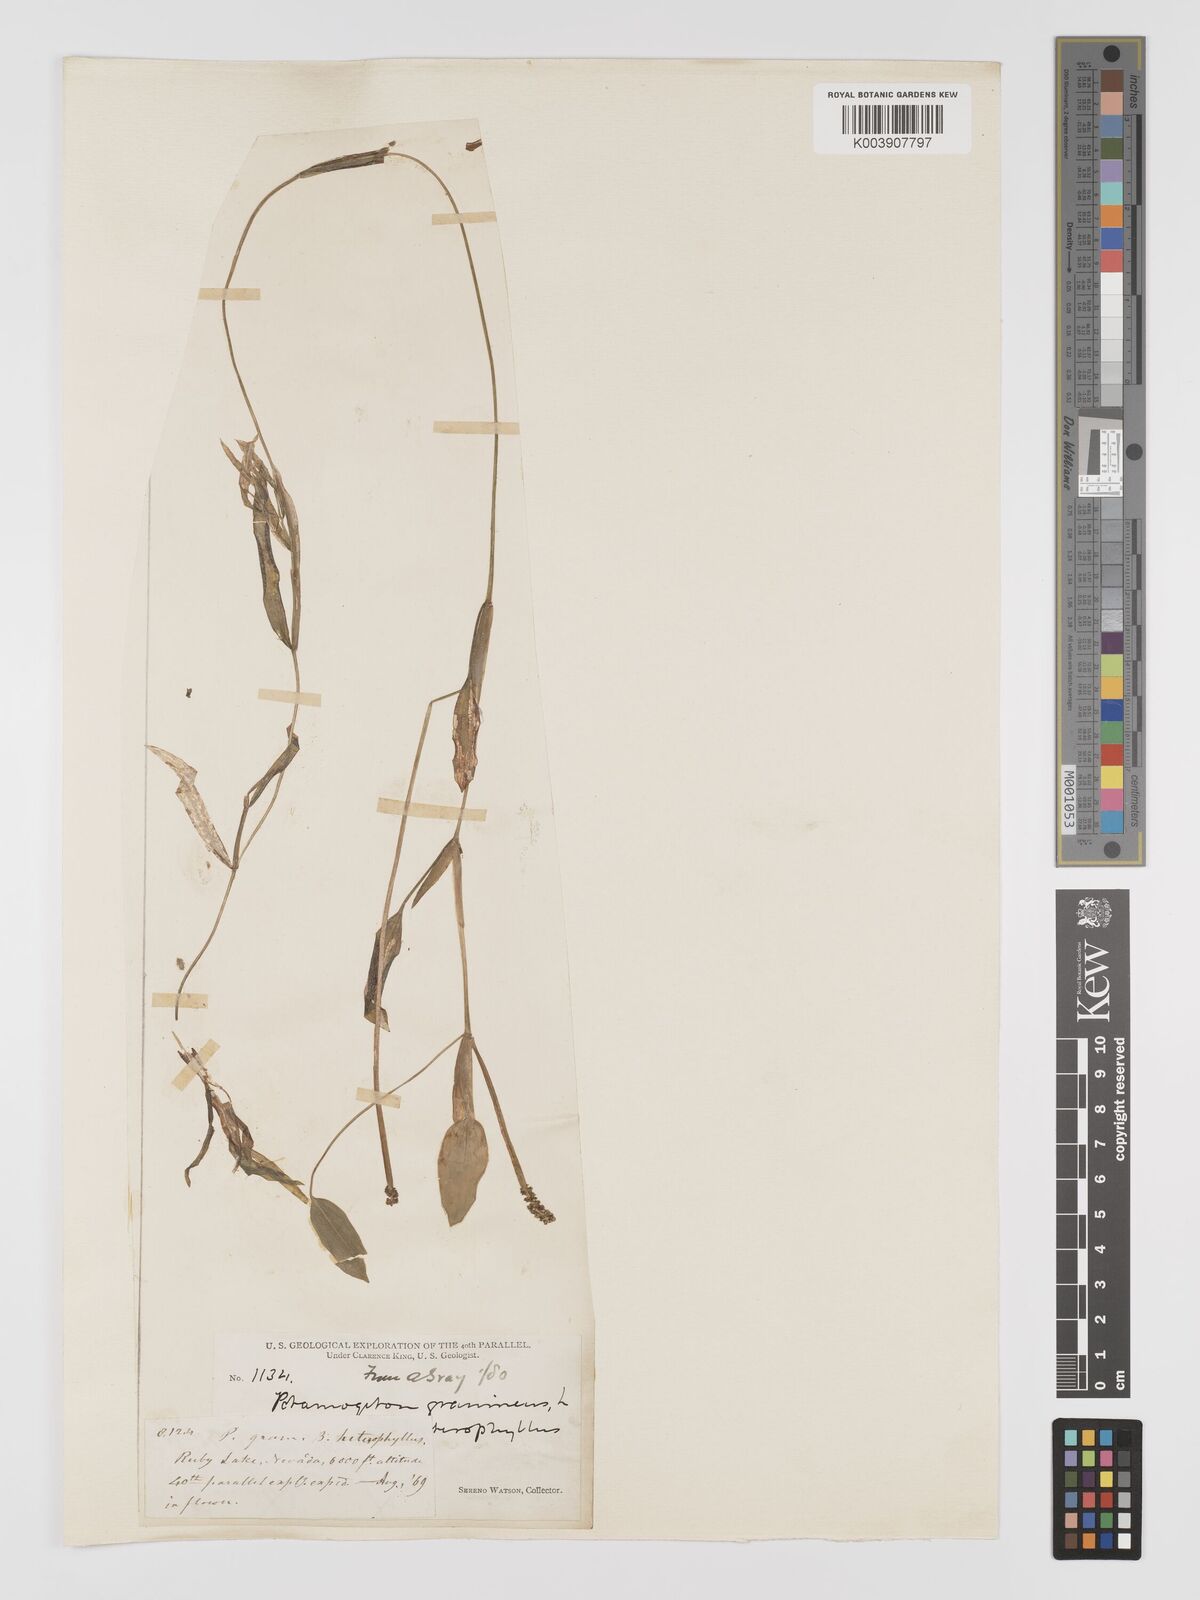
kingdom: Plantae
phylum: Tracheophyta
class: Liliopsida
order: Alismatales
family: Potamogetonaceae
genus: Potamogeton
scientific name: Potamogeton gramineus
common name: Various-leaved pondweed
